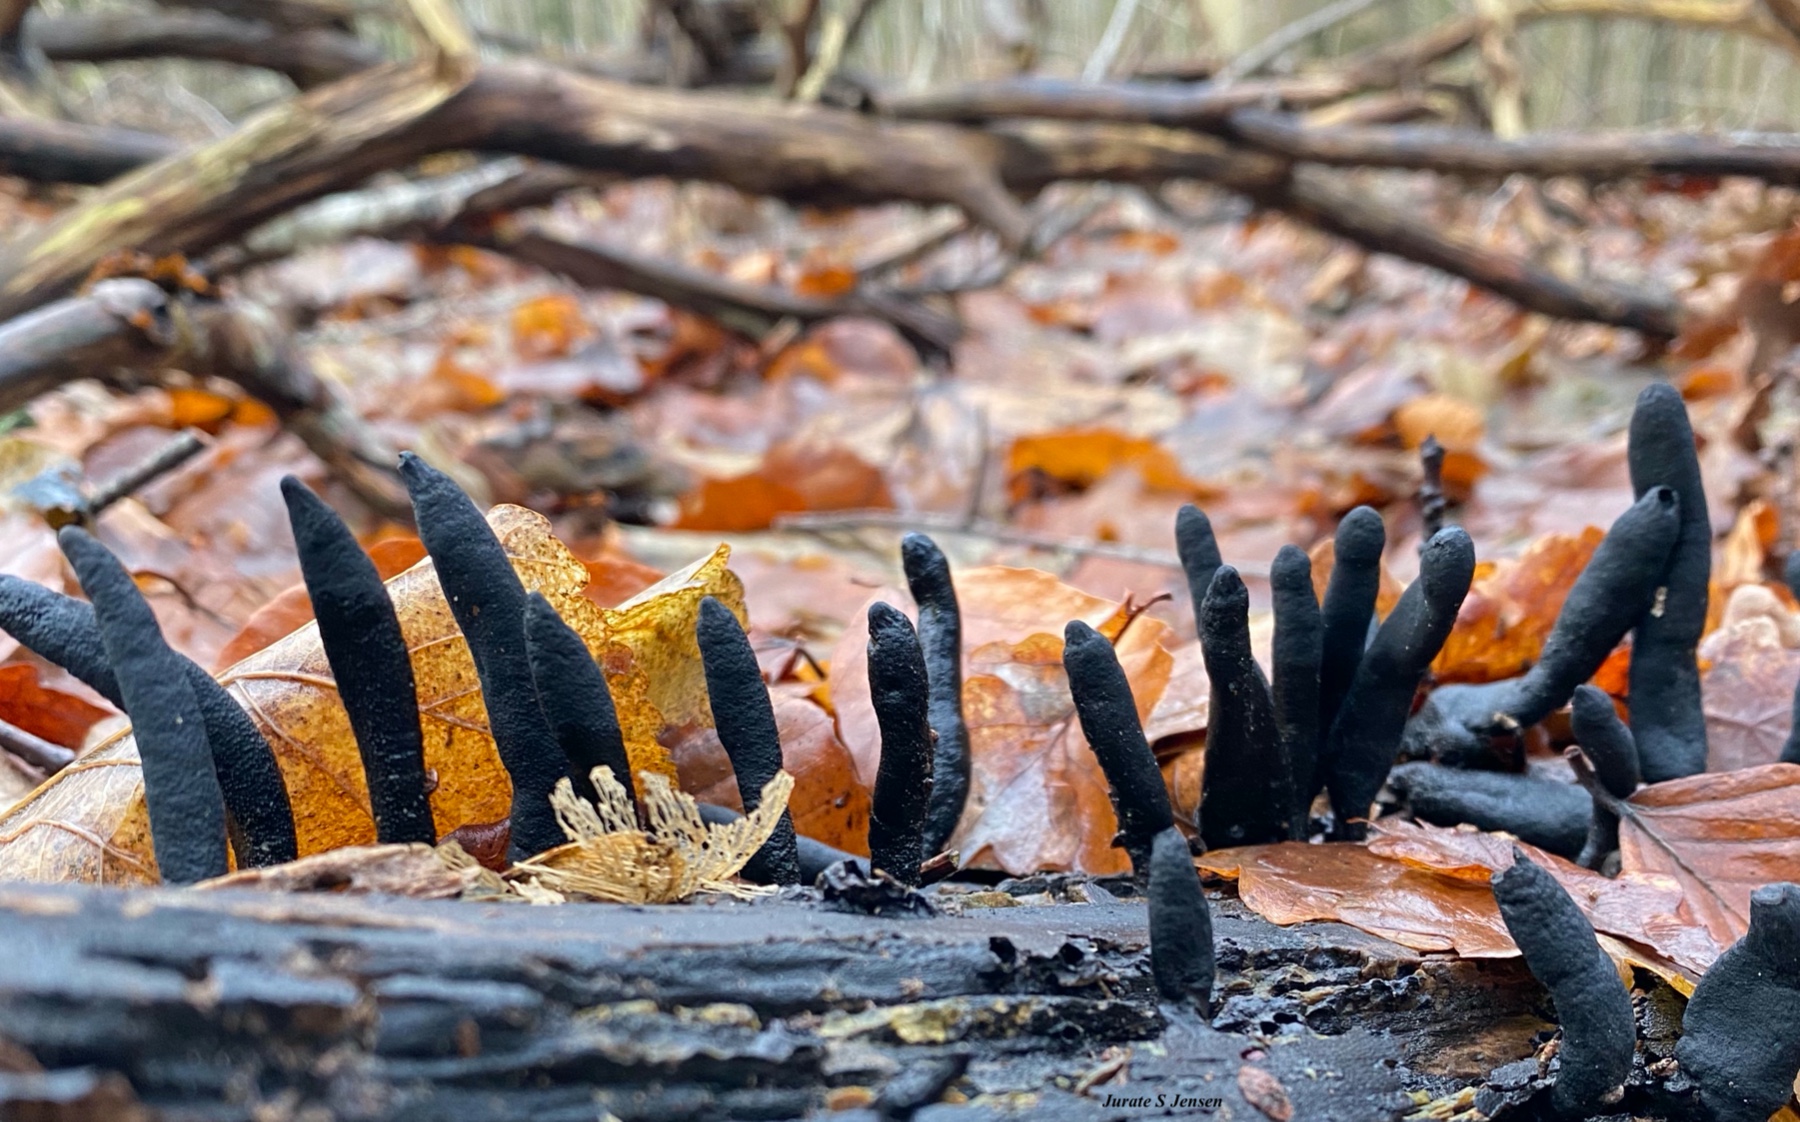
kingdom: Fungi
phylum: Ascomycota
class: Sordariomycetes
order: Xylariales
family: Xylariaceae
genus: Xylaria
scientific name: Xylaria longipes
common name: slank stødsvamp
